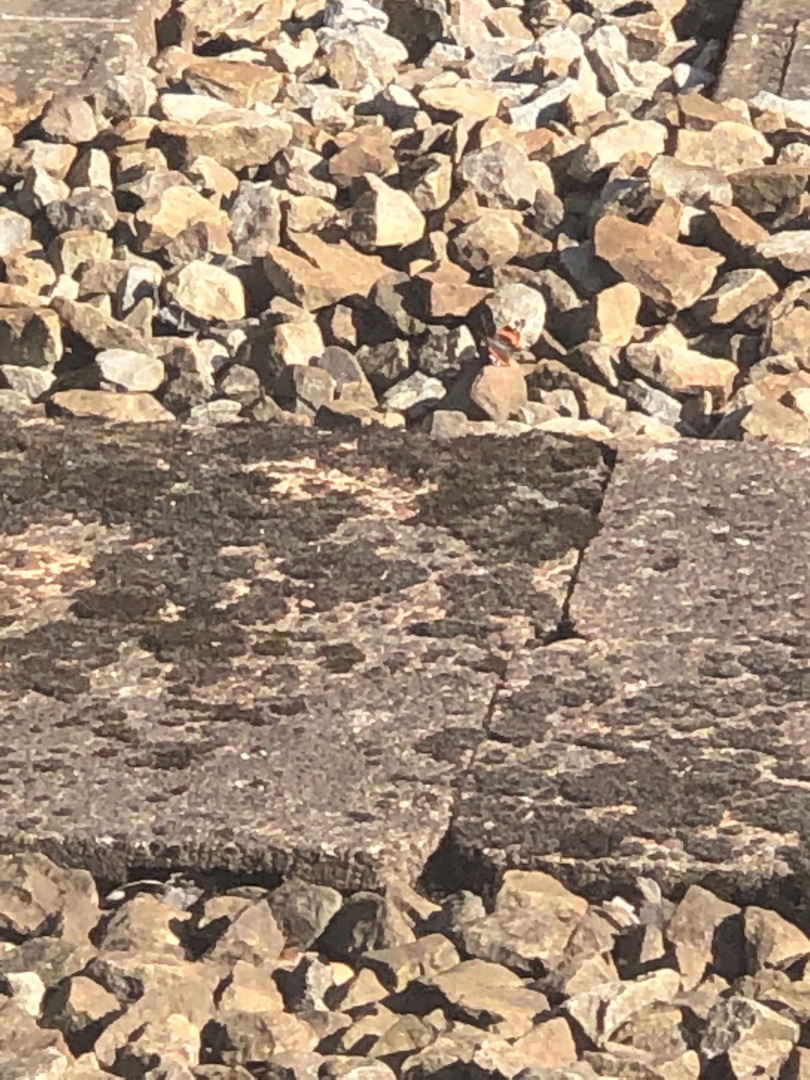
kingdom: Animalia
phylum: Arthropoda
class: Insecta
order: Lepidoptera
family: Nymphalidae
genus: Vanessa
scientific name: Vanessa atalanta
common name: Admiral
